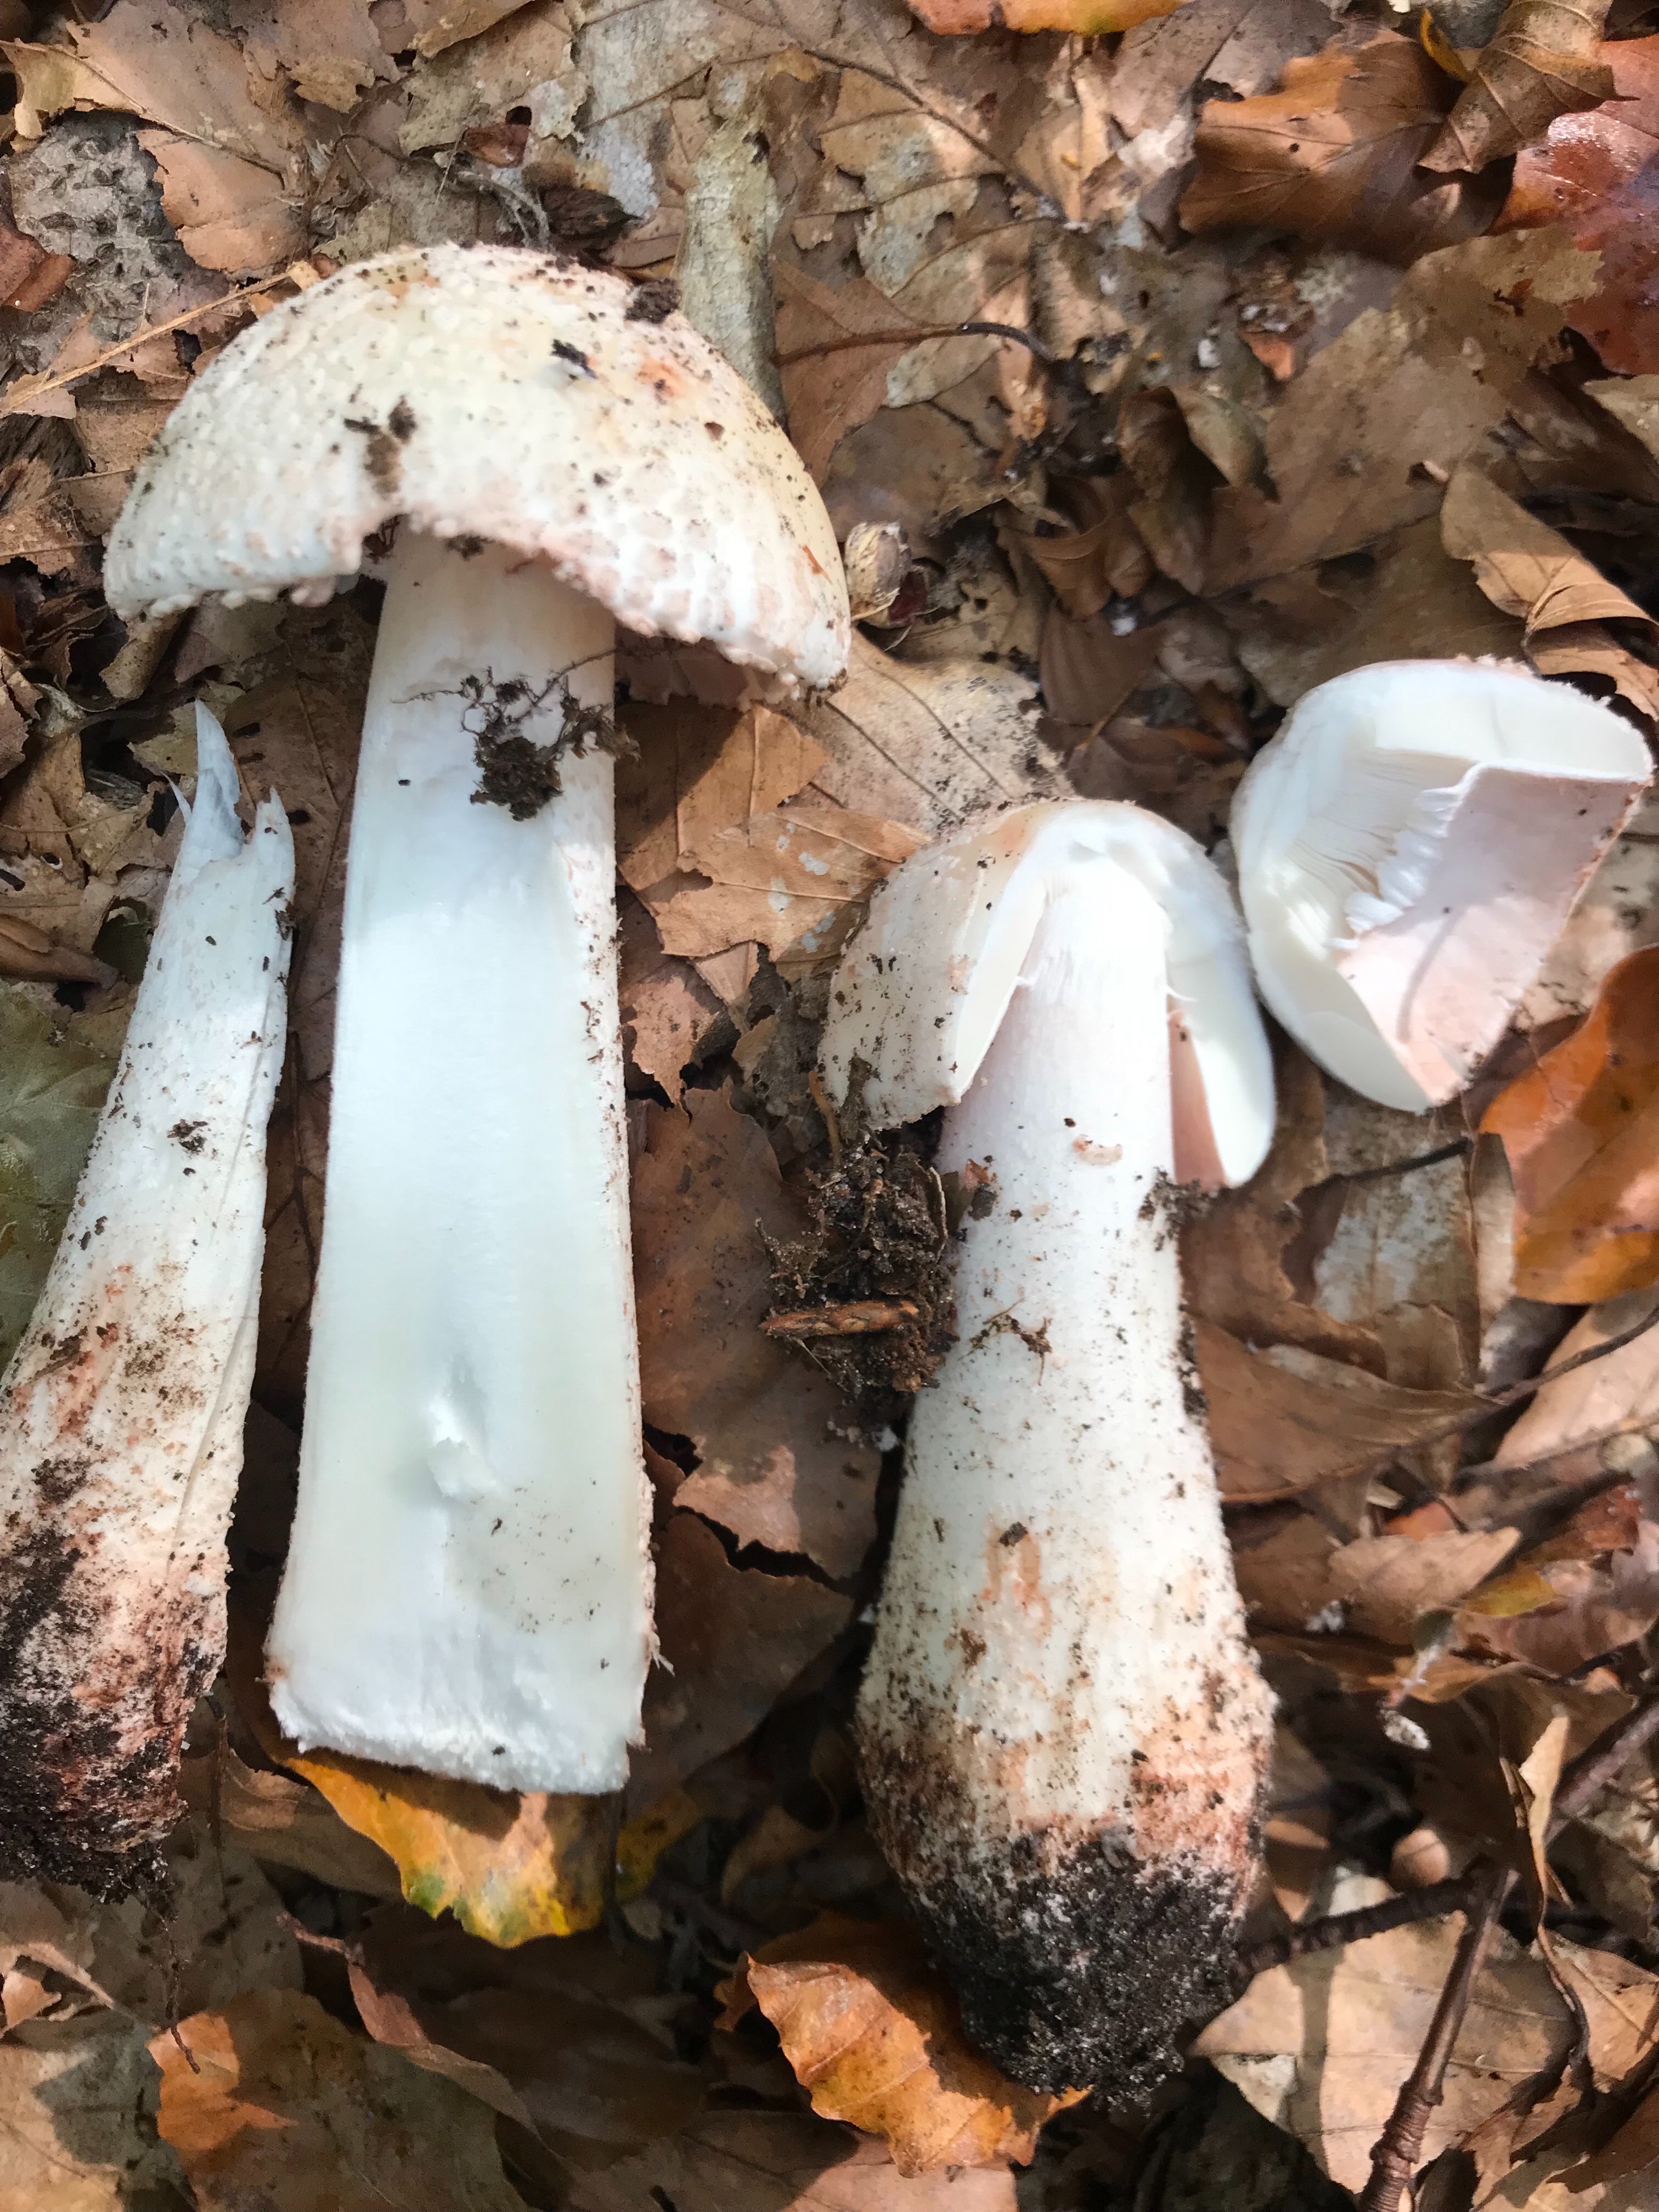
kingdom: Fungi
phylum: Basidiomycota
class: Agaricomycetes
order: Agaricales
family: Amanitaceae
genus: Amanita
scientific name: Amanita rubescens
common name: rødmende fluesvamp
